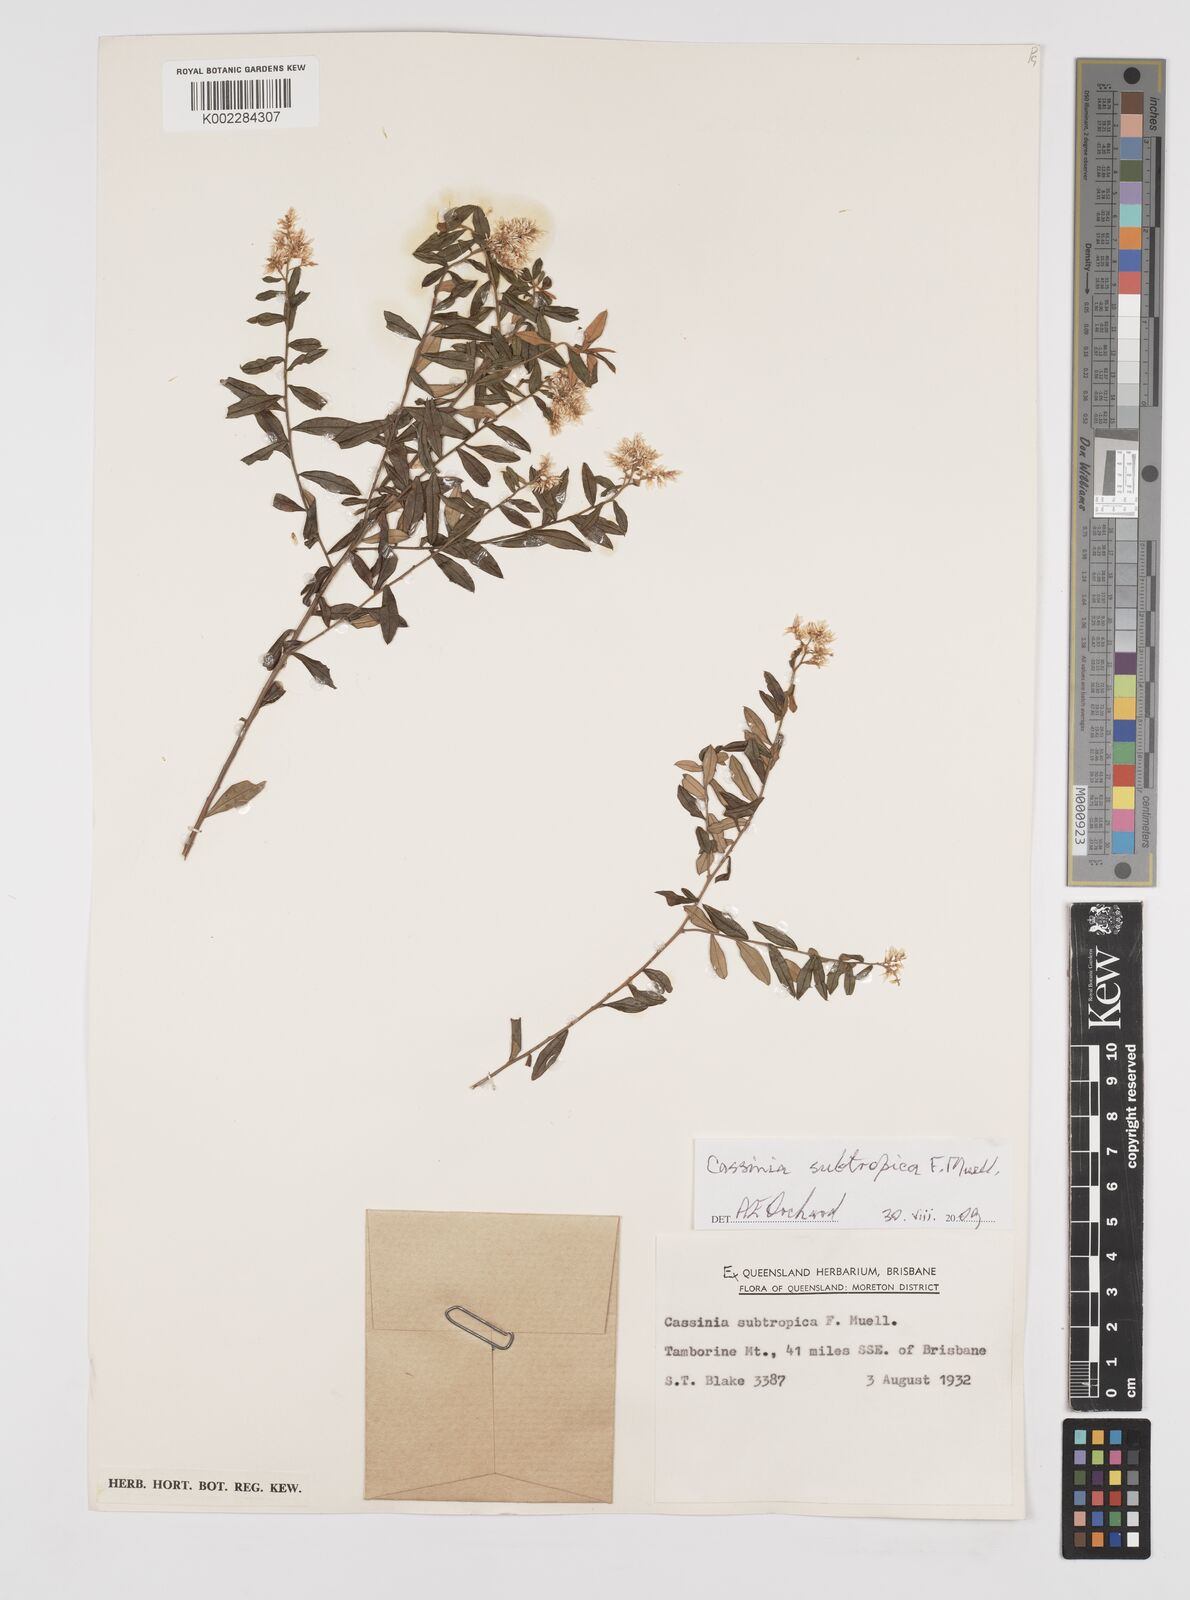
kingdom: Plantae
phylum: Tracheophyta
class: Magnoliopsida
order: Asterales
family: Asteraceae
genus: Cassinia
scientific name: Cassinia subtropica
